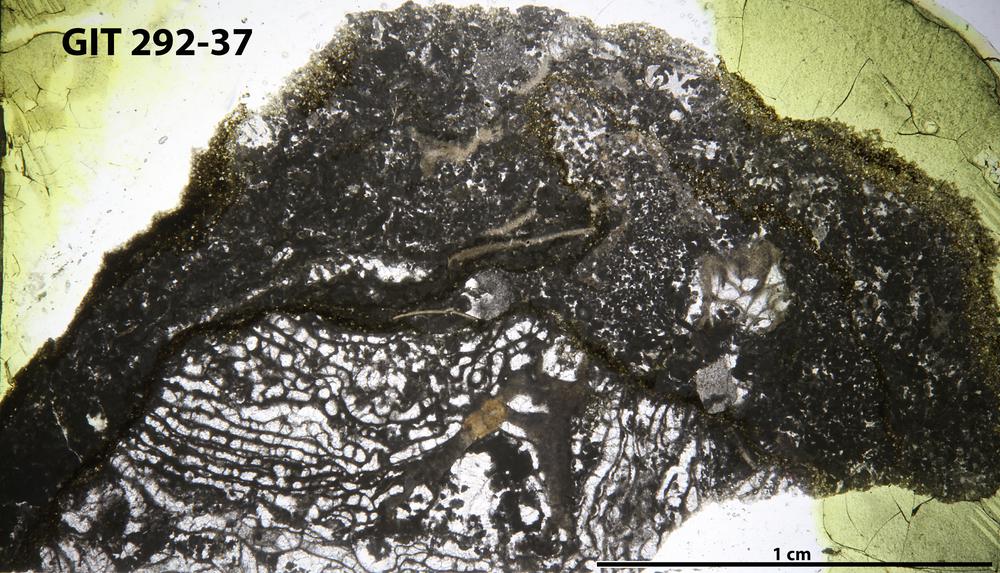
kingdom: Animalia
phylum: Porifera
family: Stromatoporellidae
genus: Simplexodictyon
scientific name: Simplexodictyon
